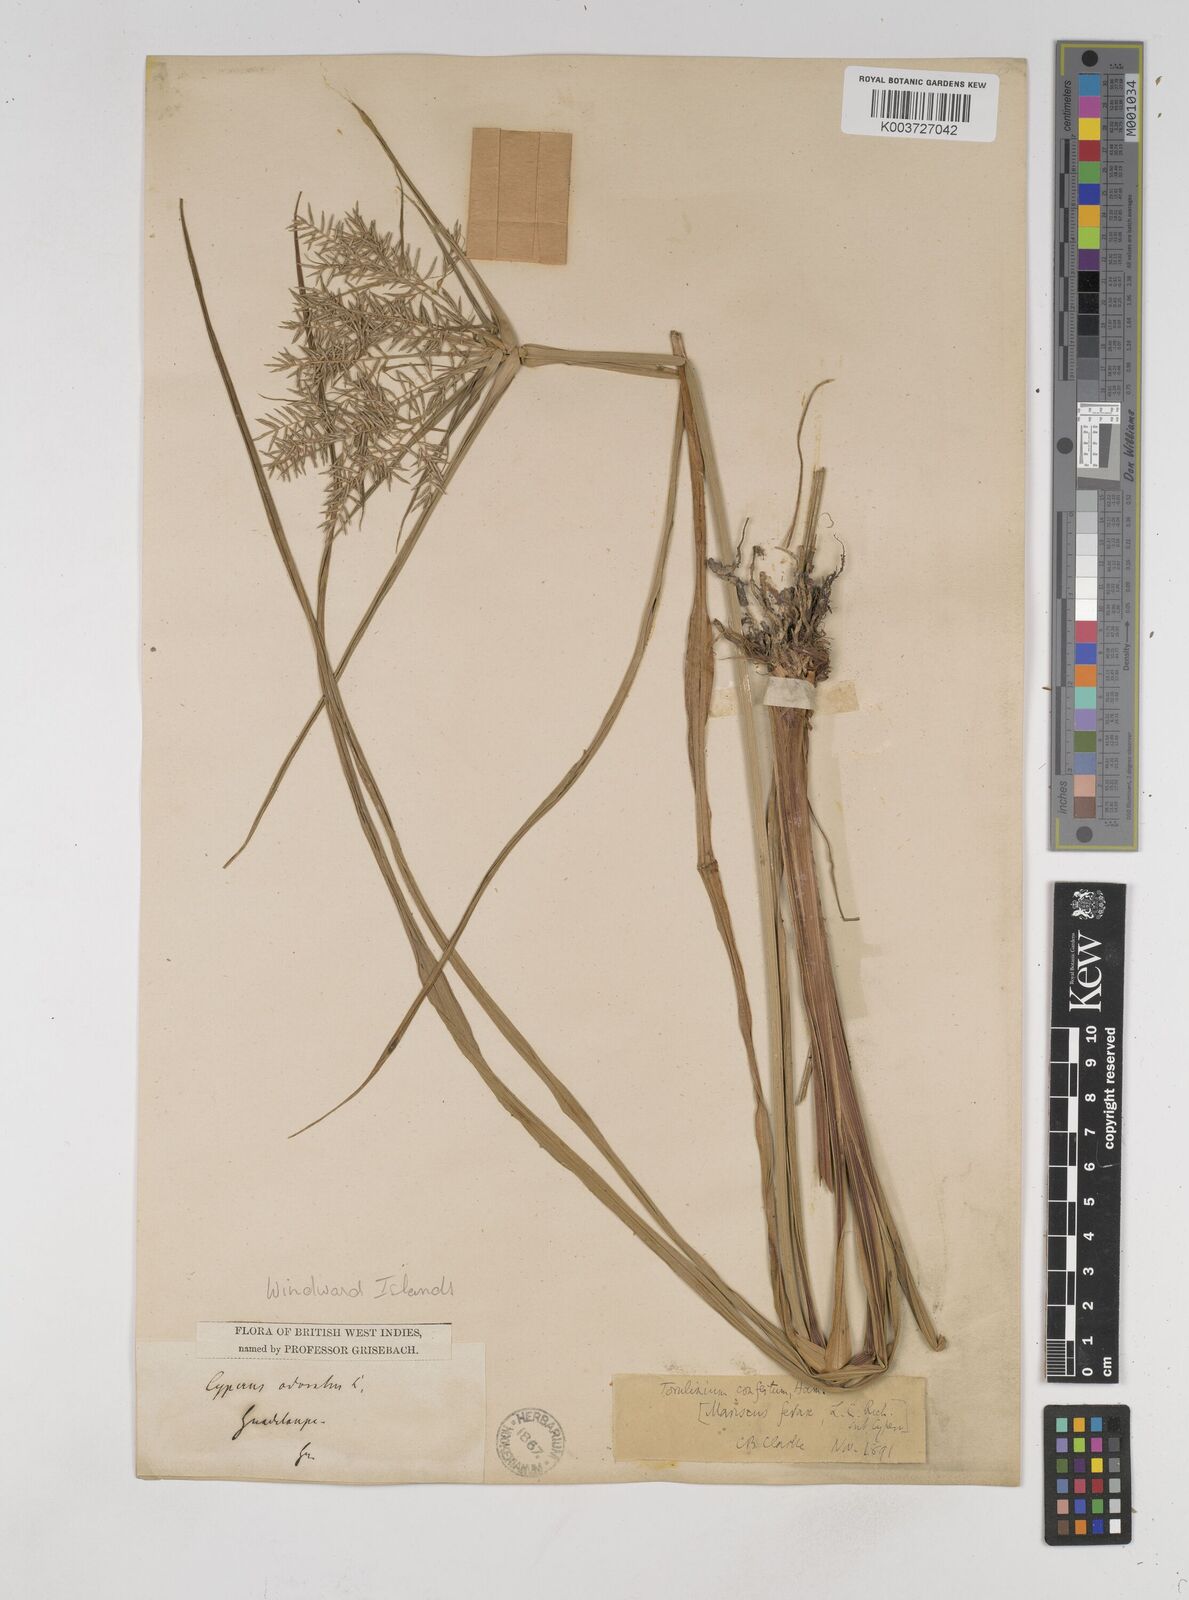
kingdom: Plantae
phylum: Tracheophyta
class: Liliopsida
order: Poales
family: Cyperaceae
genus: Cyperus
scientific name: Cyperus odoratus
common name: Fragrant flatsedge
